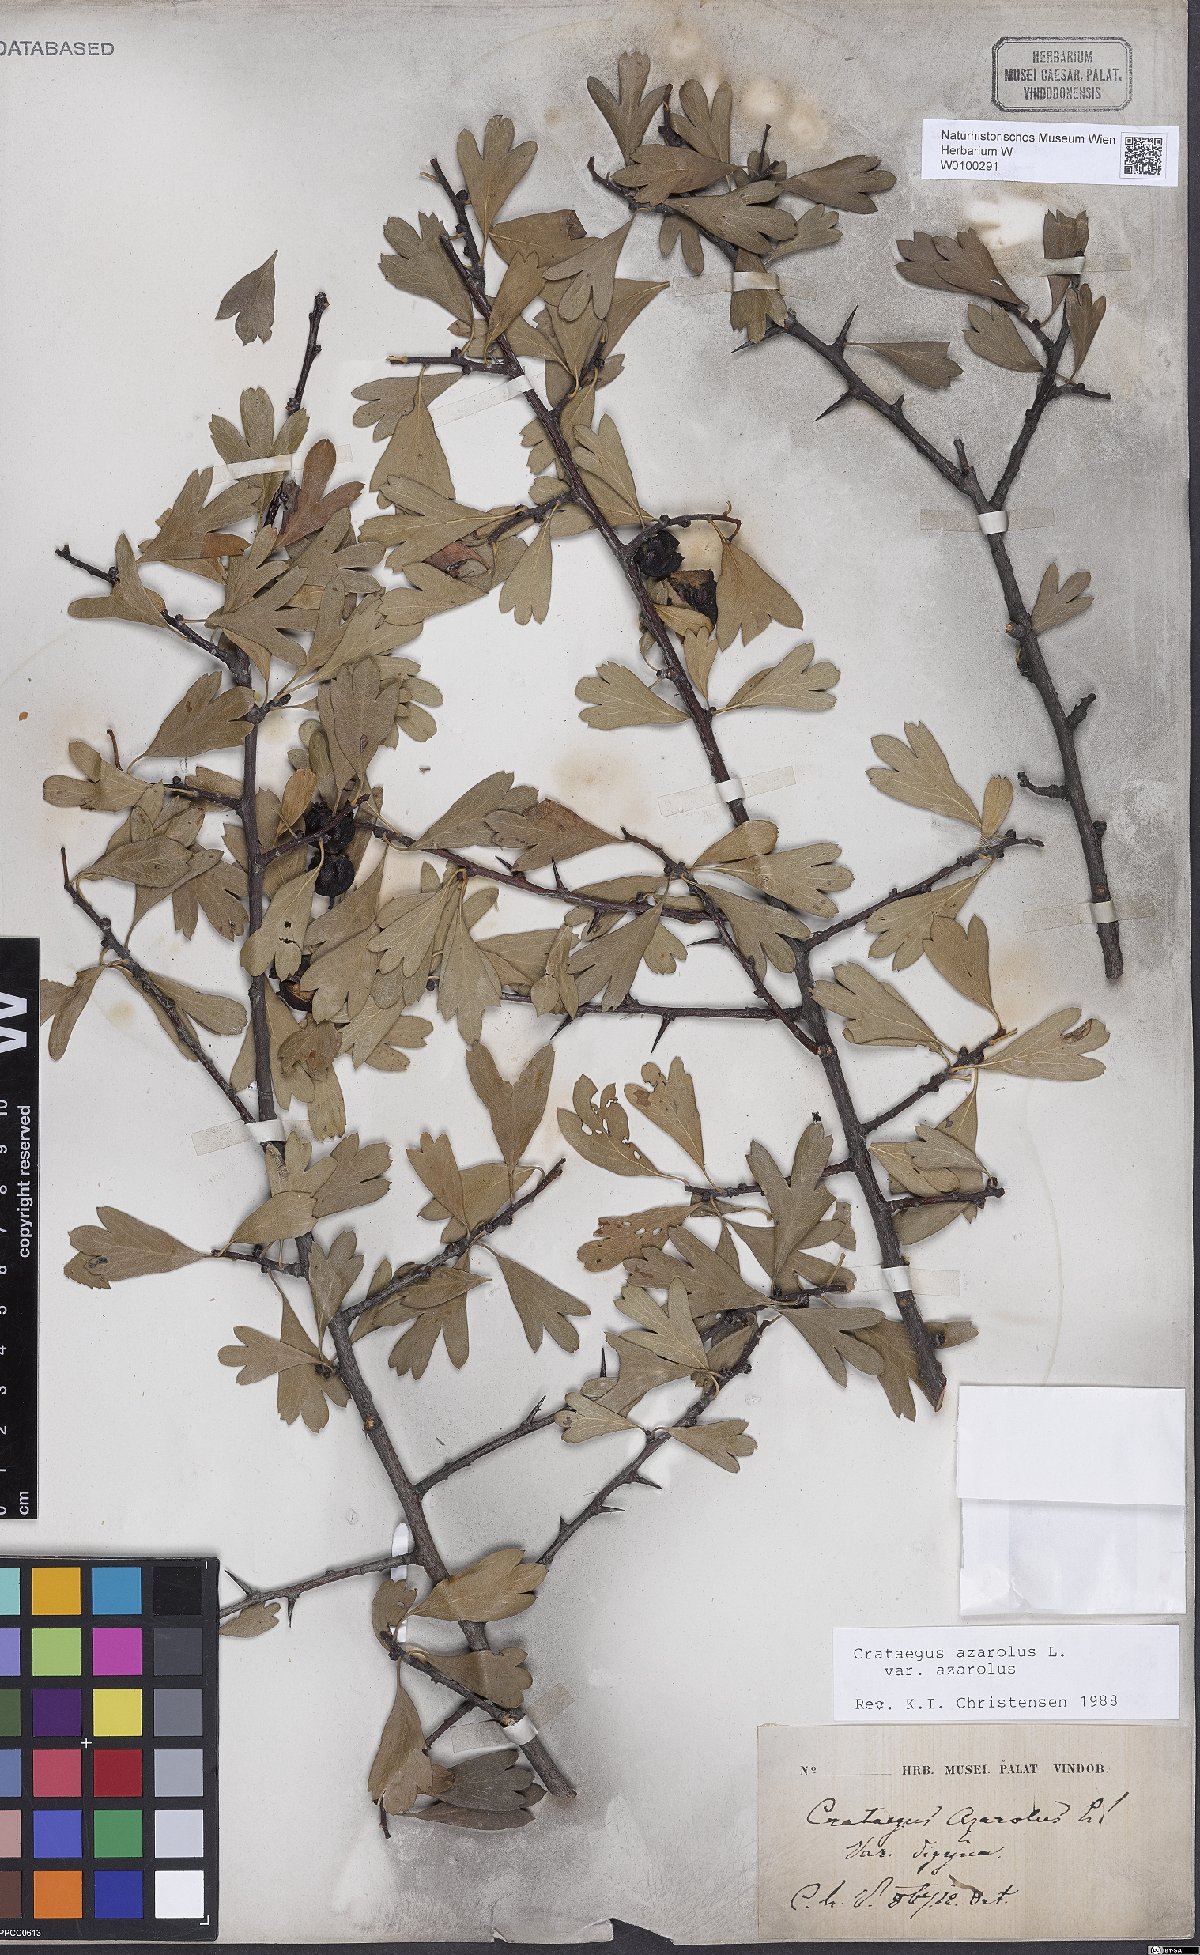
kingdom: Plantae
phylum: Tracheophyta
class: Magnoliopsida
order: Rosales
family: Rosaceae
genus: Crataegus
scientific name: Crataegus azarolus
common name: Azarole
